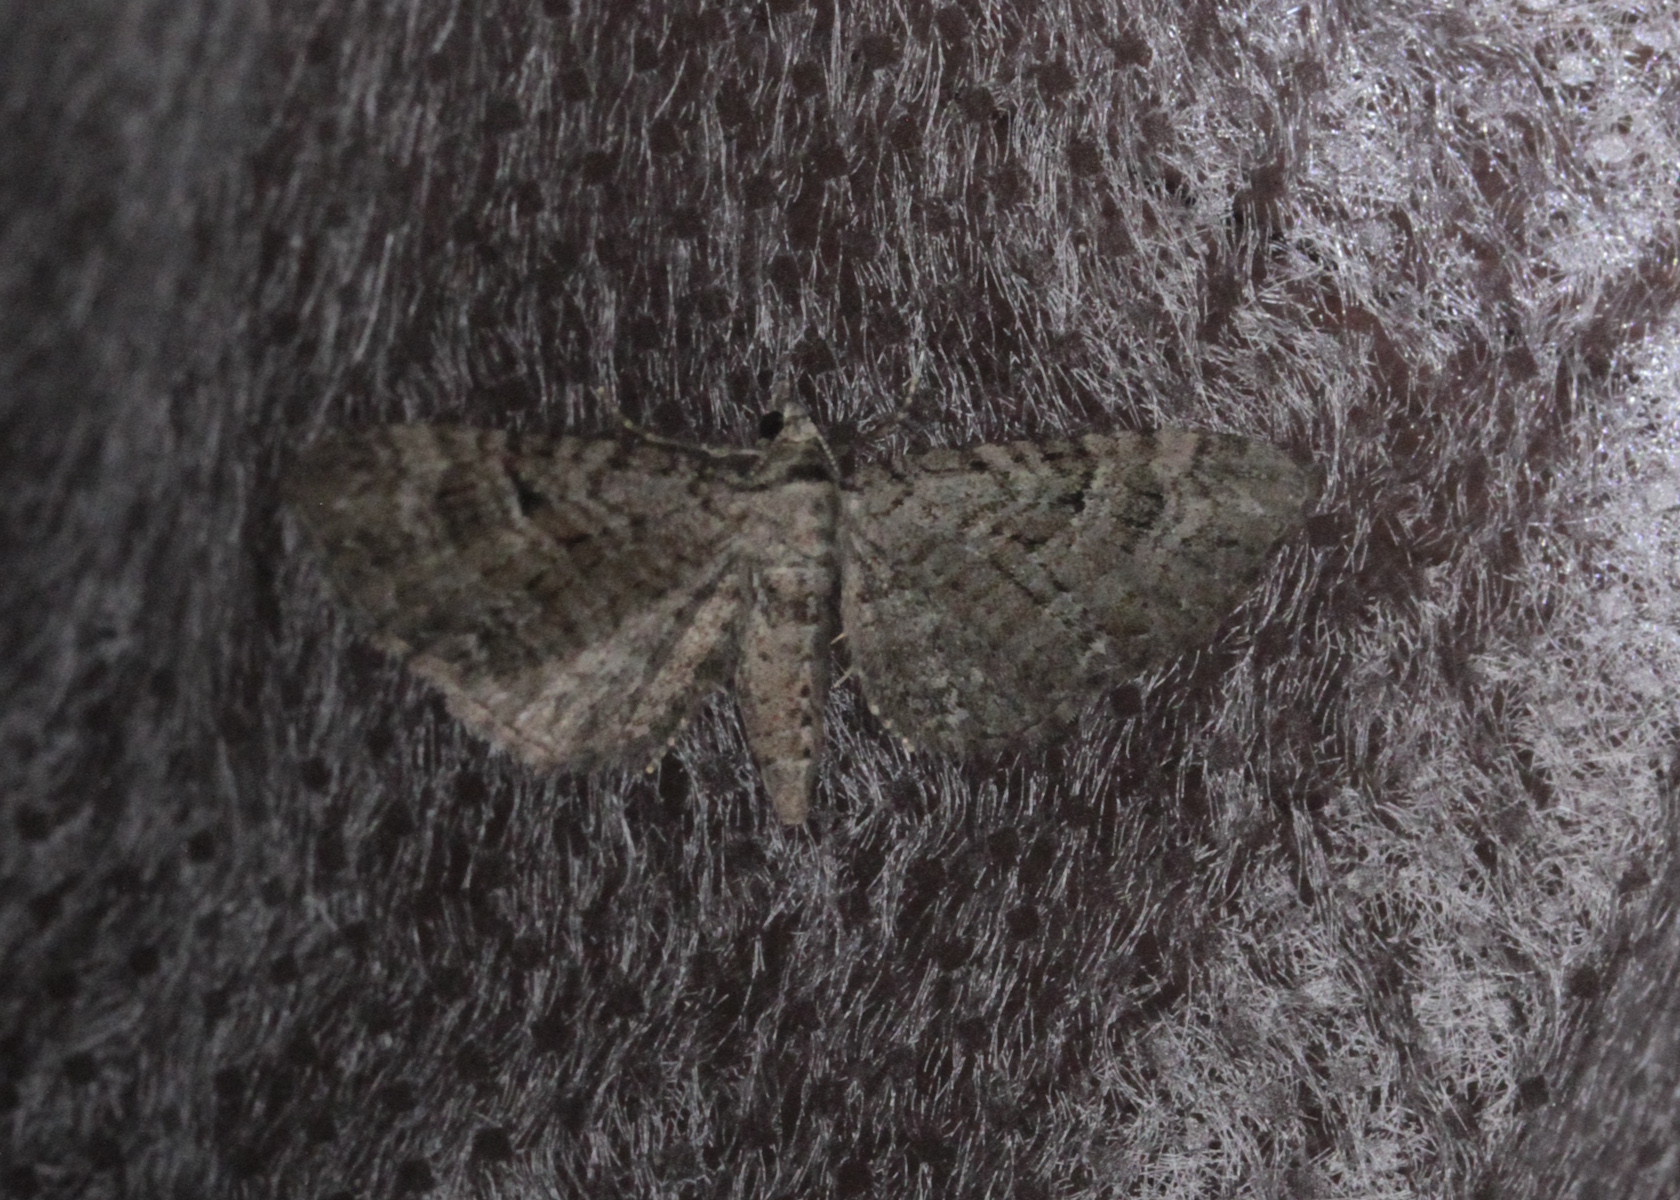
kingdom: Animalia
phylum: Arthropoda
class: Insecta
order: Lepidoptera
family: Geometridae
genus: Pasiphila
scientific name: Pasiphila debiliata
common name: Bilberry pug
